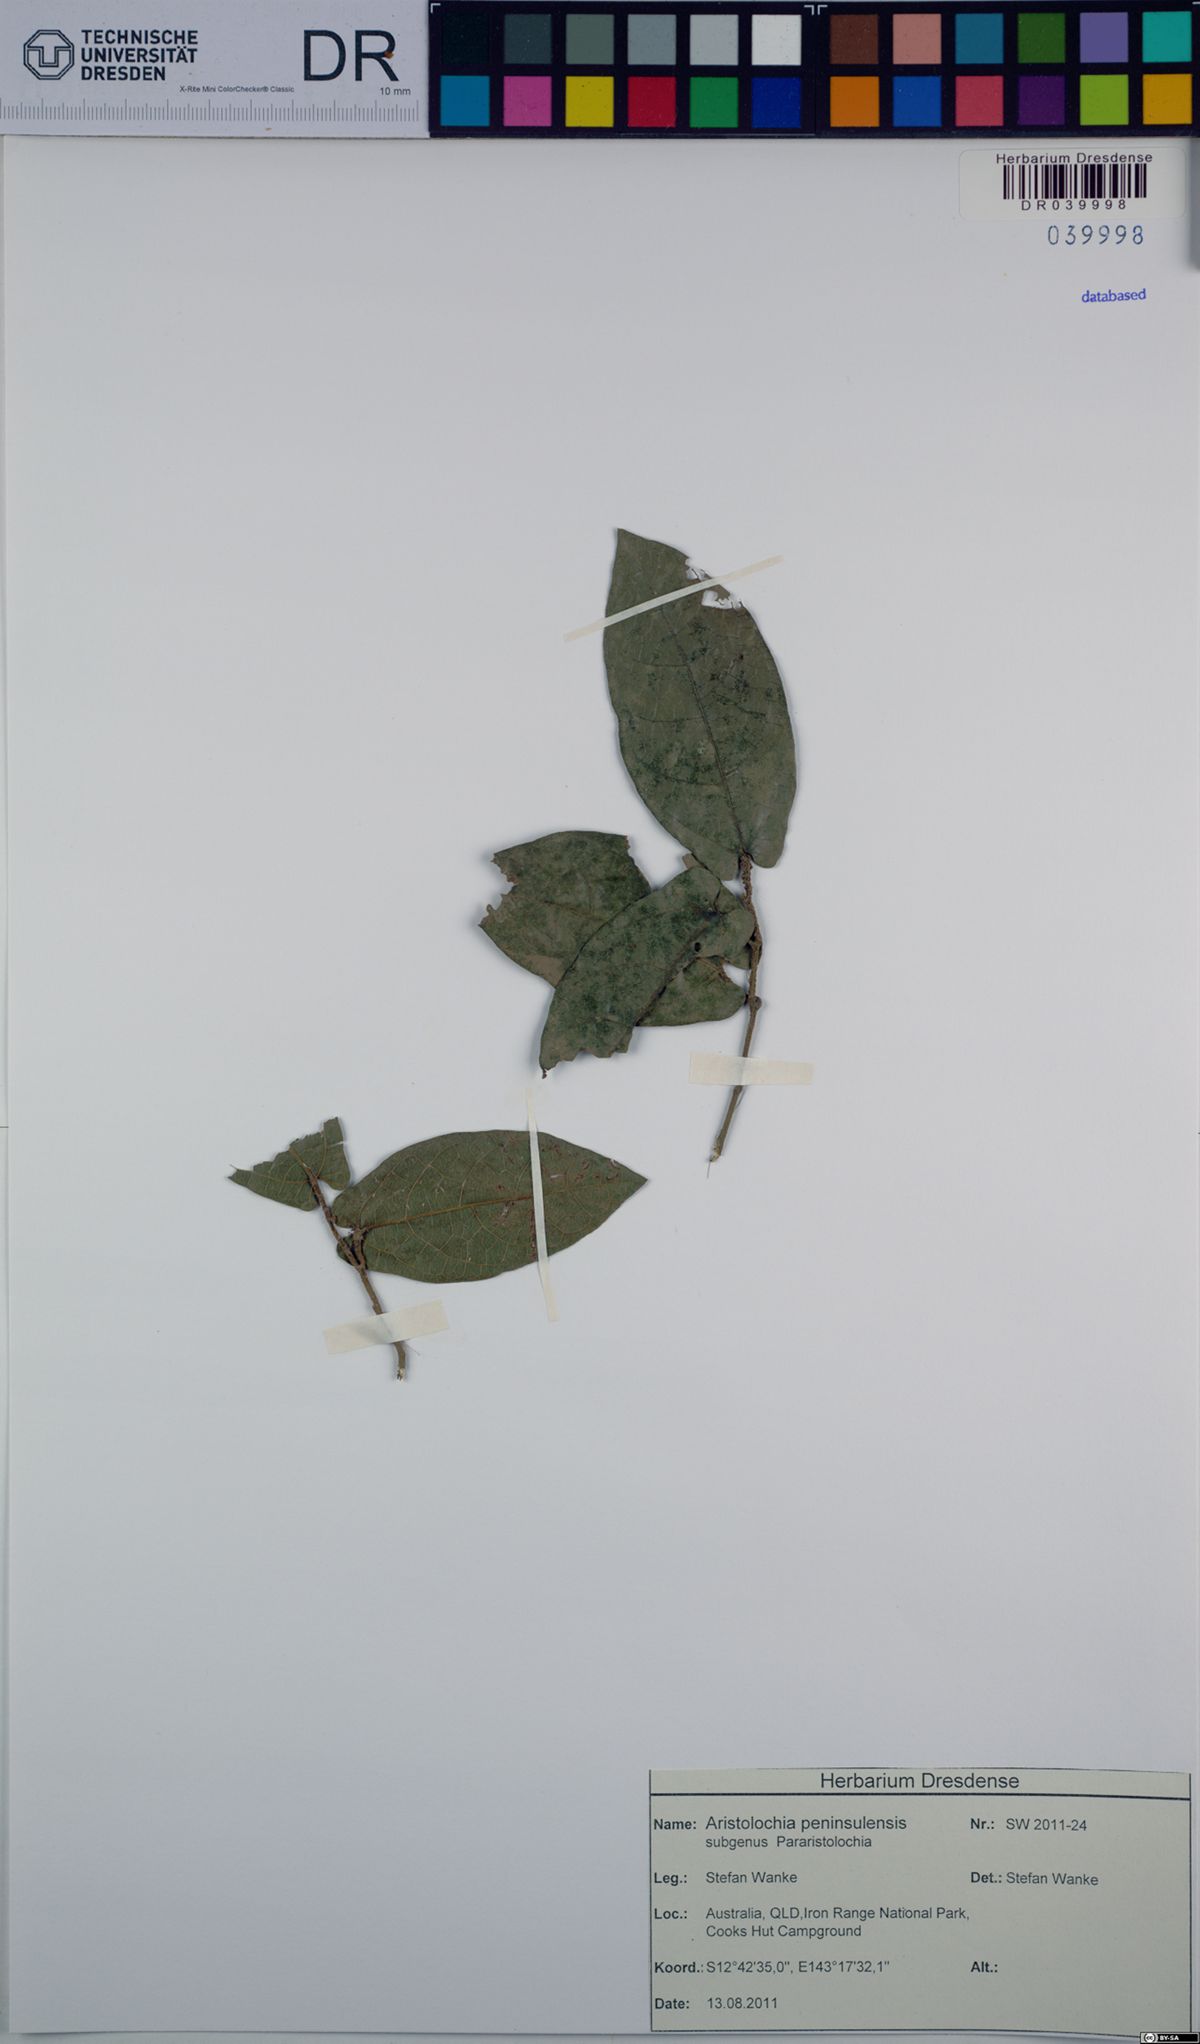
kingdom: Plantae
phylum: Tracheophyta
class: Magnoliopsida
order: Piperales
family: Aristolochiaceae
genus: Aristolochia
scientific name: Aristolochia peninsulensis
